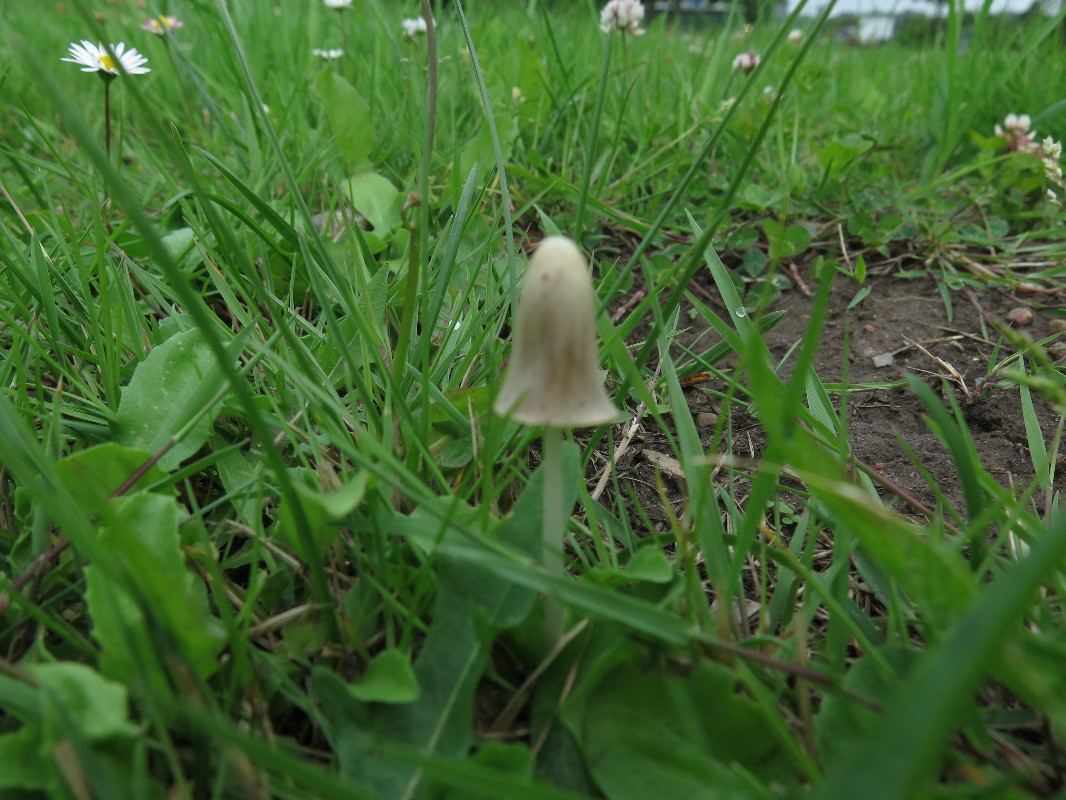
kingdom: Fungi
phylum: Basidiomycota
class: Agaricomycetes
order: Agaricales
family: Bolbitiaceae
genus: Conocybe
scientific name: Conocybe apala
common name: mælkehvid keglehat
